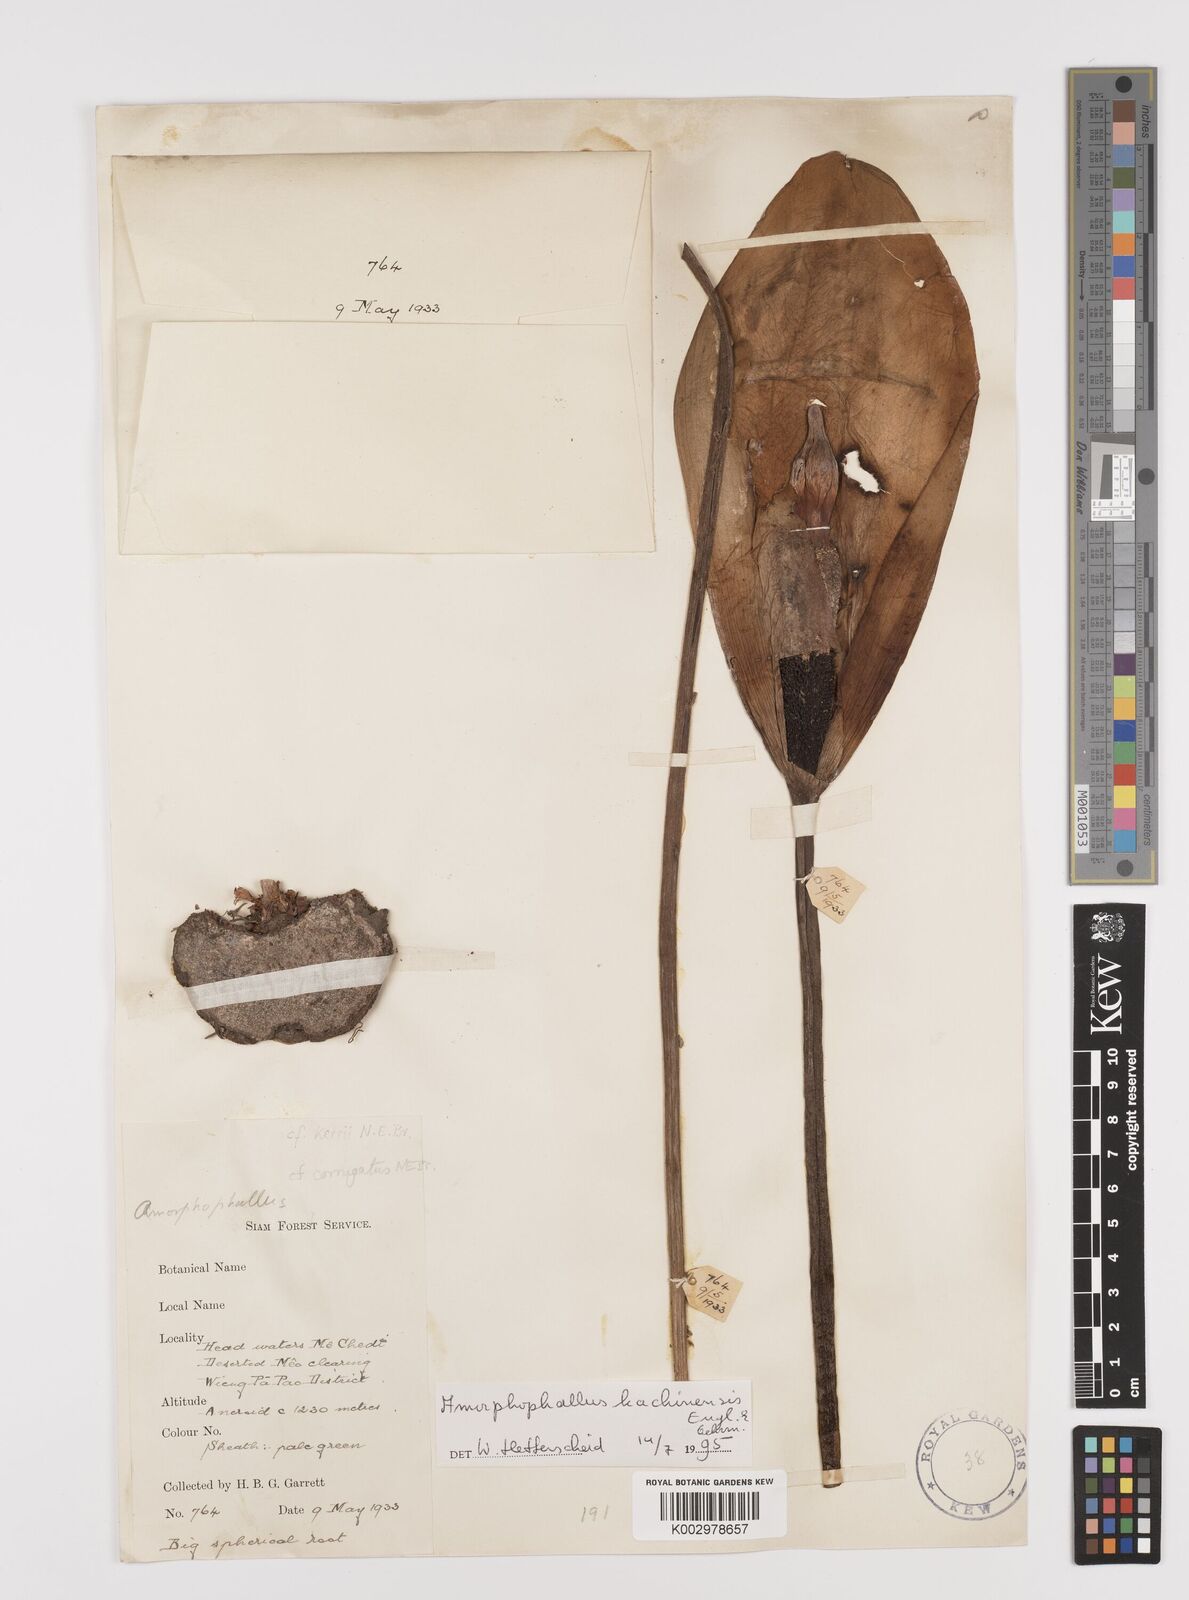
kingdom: Plantae
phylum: Tracheophyta
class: Liliopsida
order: Alismatales
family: Araceae
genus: Amorphophallus
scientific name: Amorphophallus kachinensis
